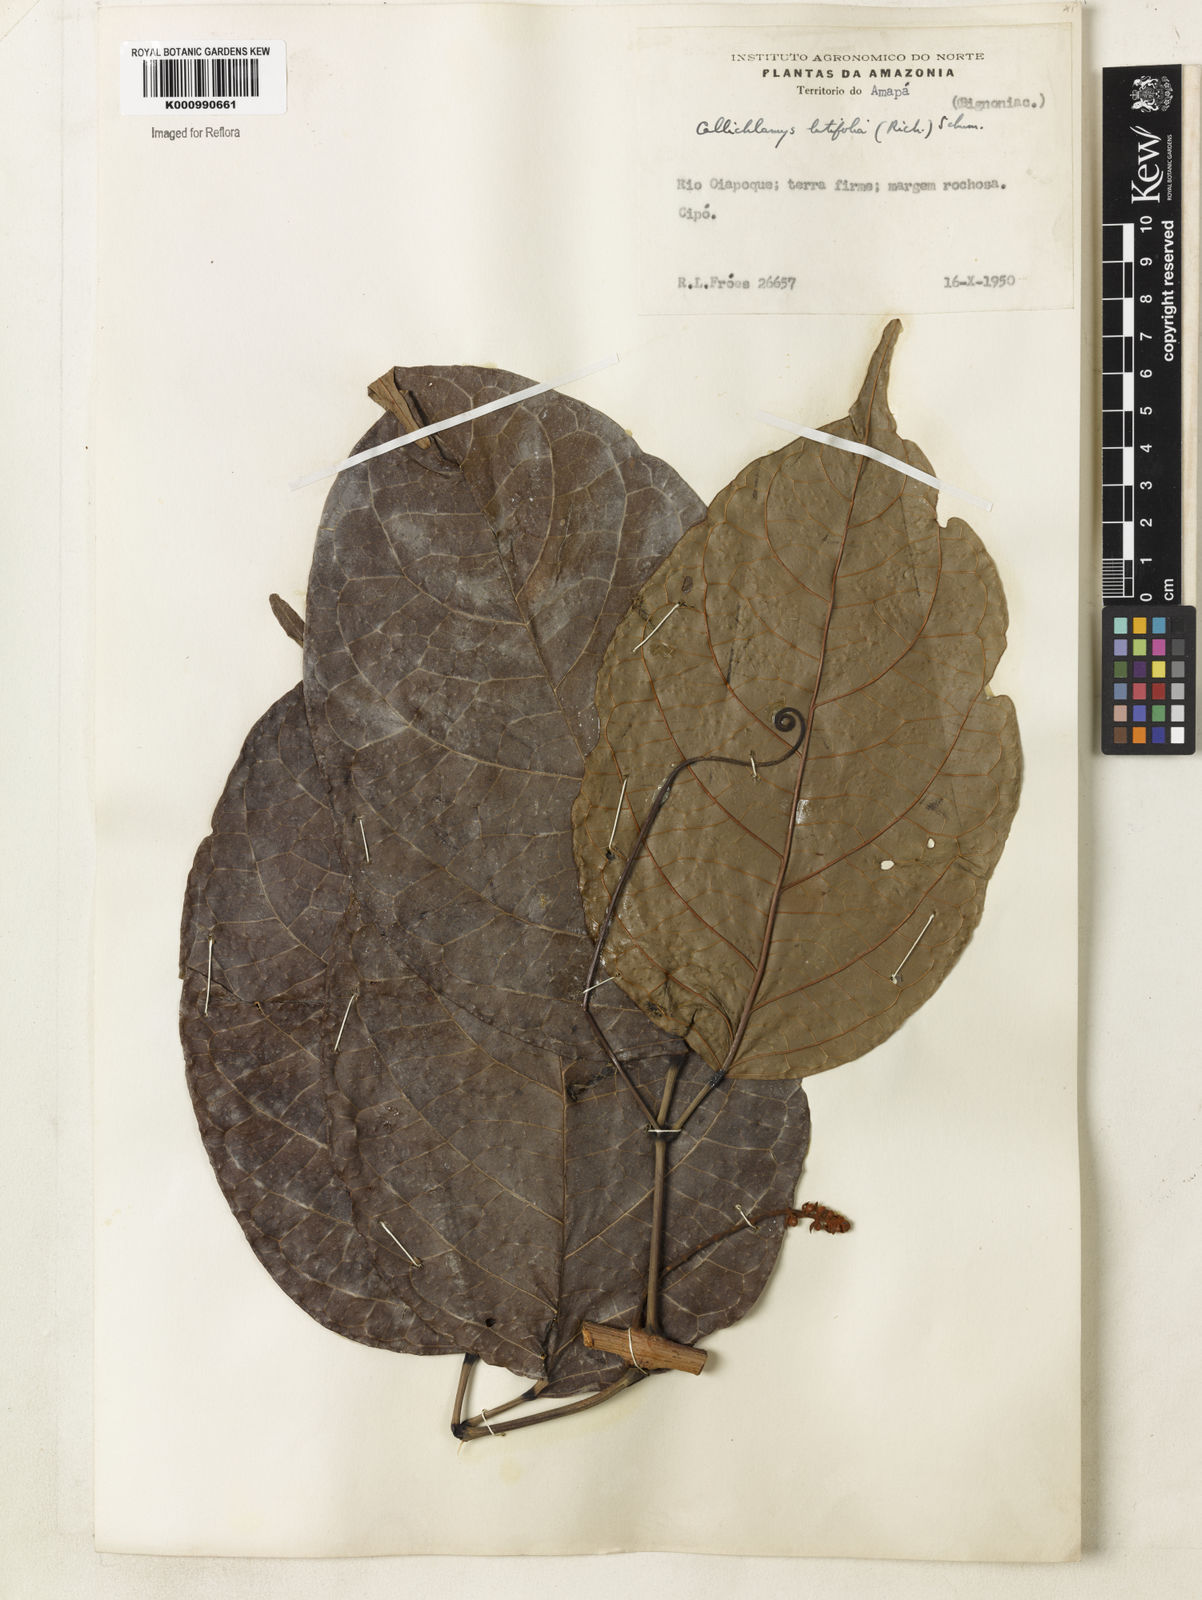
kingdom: Plantae
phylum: Tracheophyta
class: Magnoliopsida
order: Lamiales
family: Bignoniaceae
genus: Callichlamys
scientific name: Callichlamys latifolia
